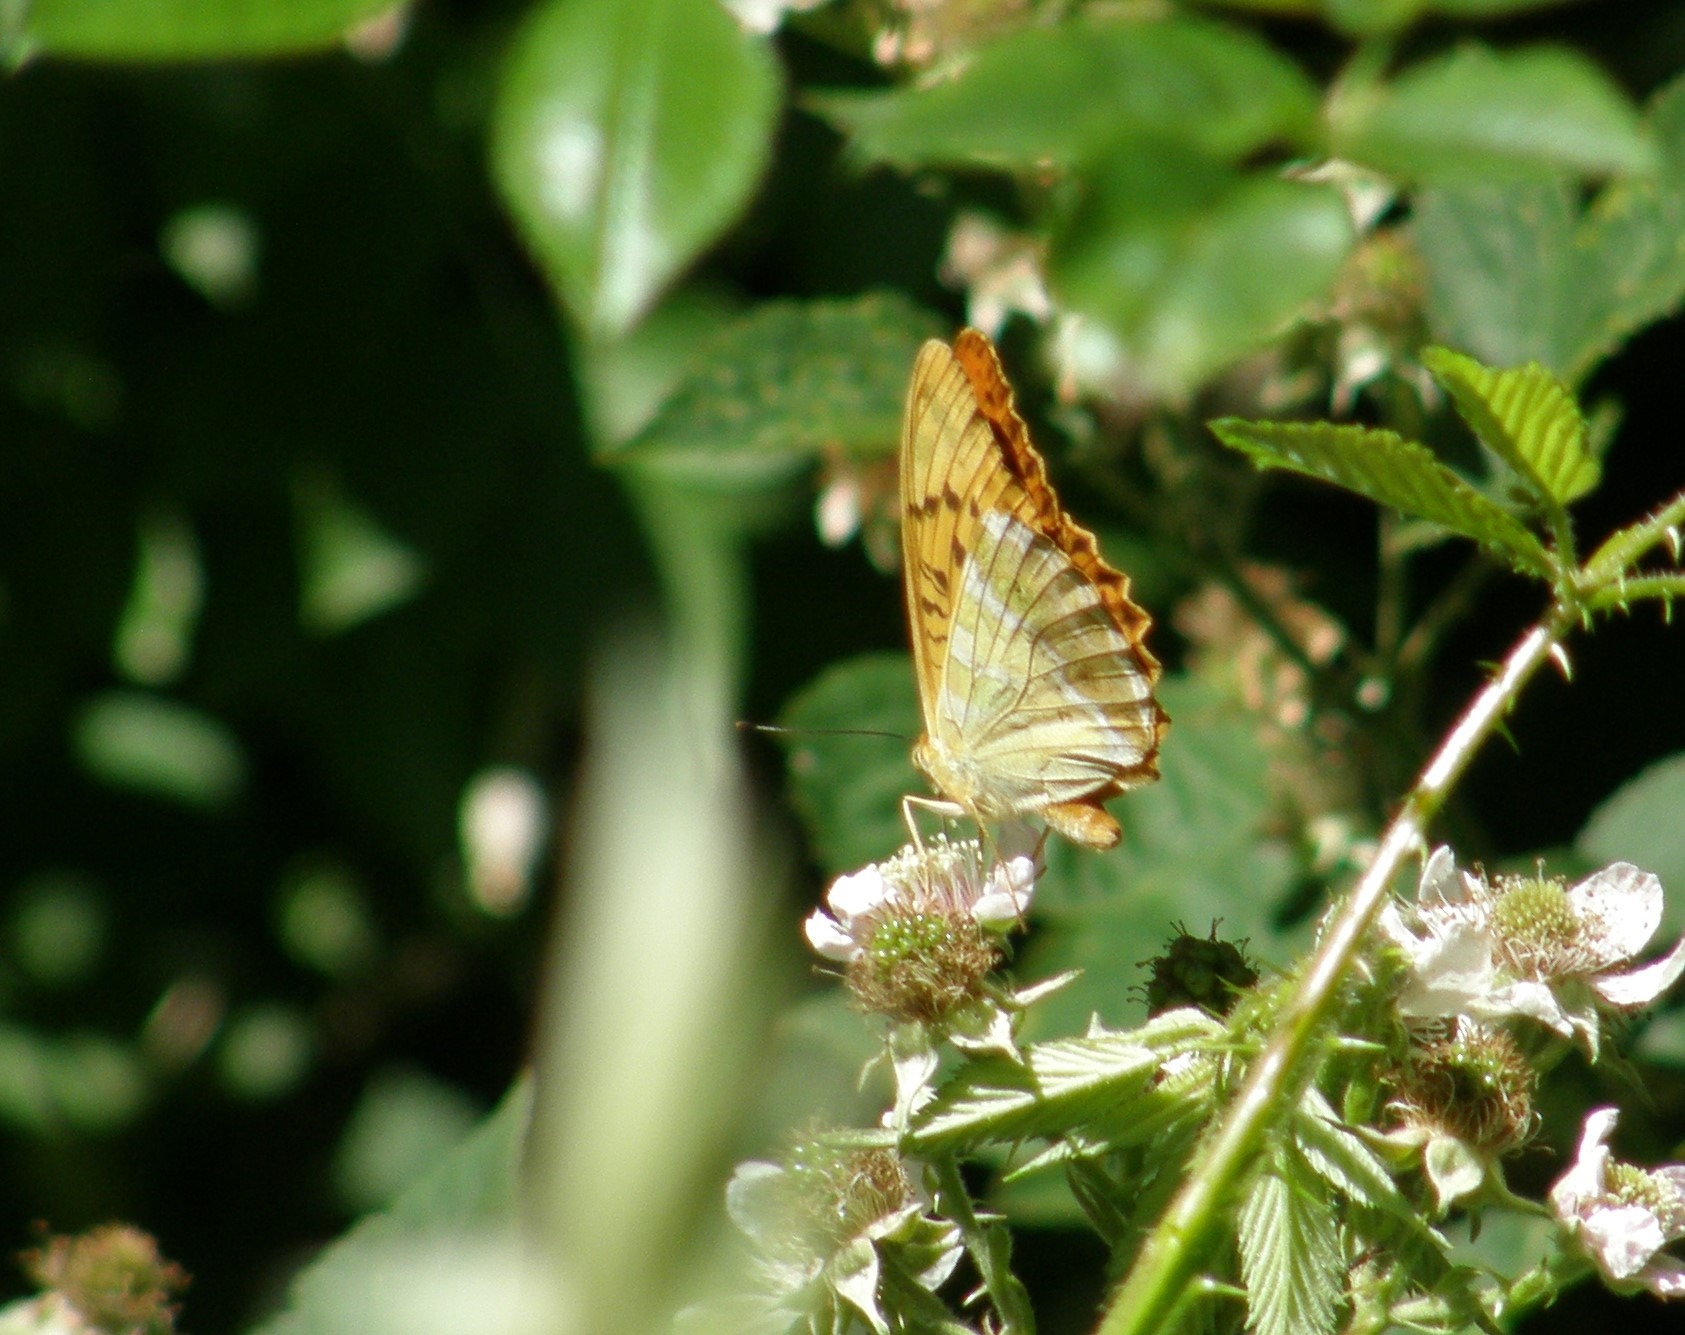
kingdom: Animalia
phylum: Arthropoda
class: Insecta
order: Lepidoptera
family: Nymphalidae
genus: Argynnis
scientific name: Argynnis paphia
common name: Kejserkåbe
